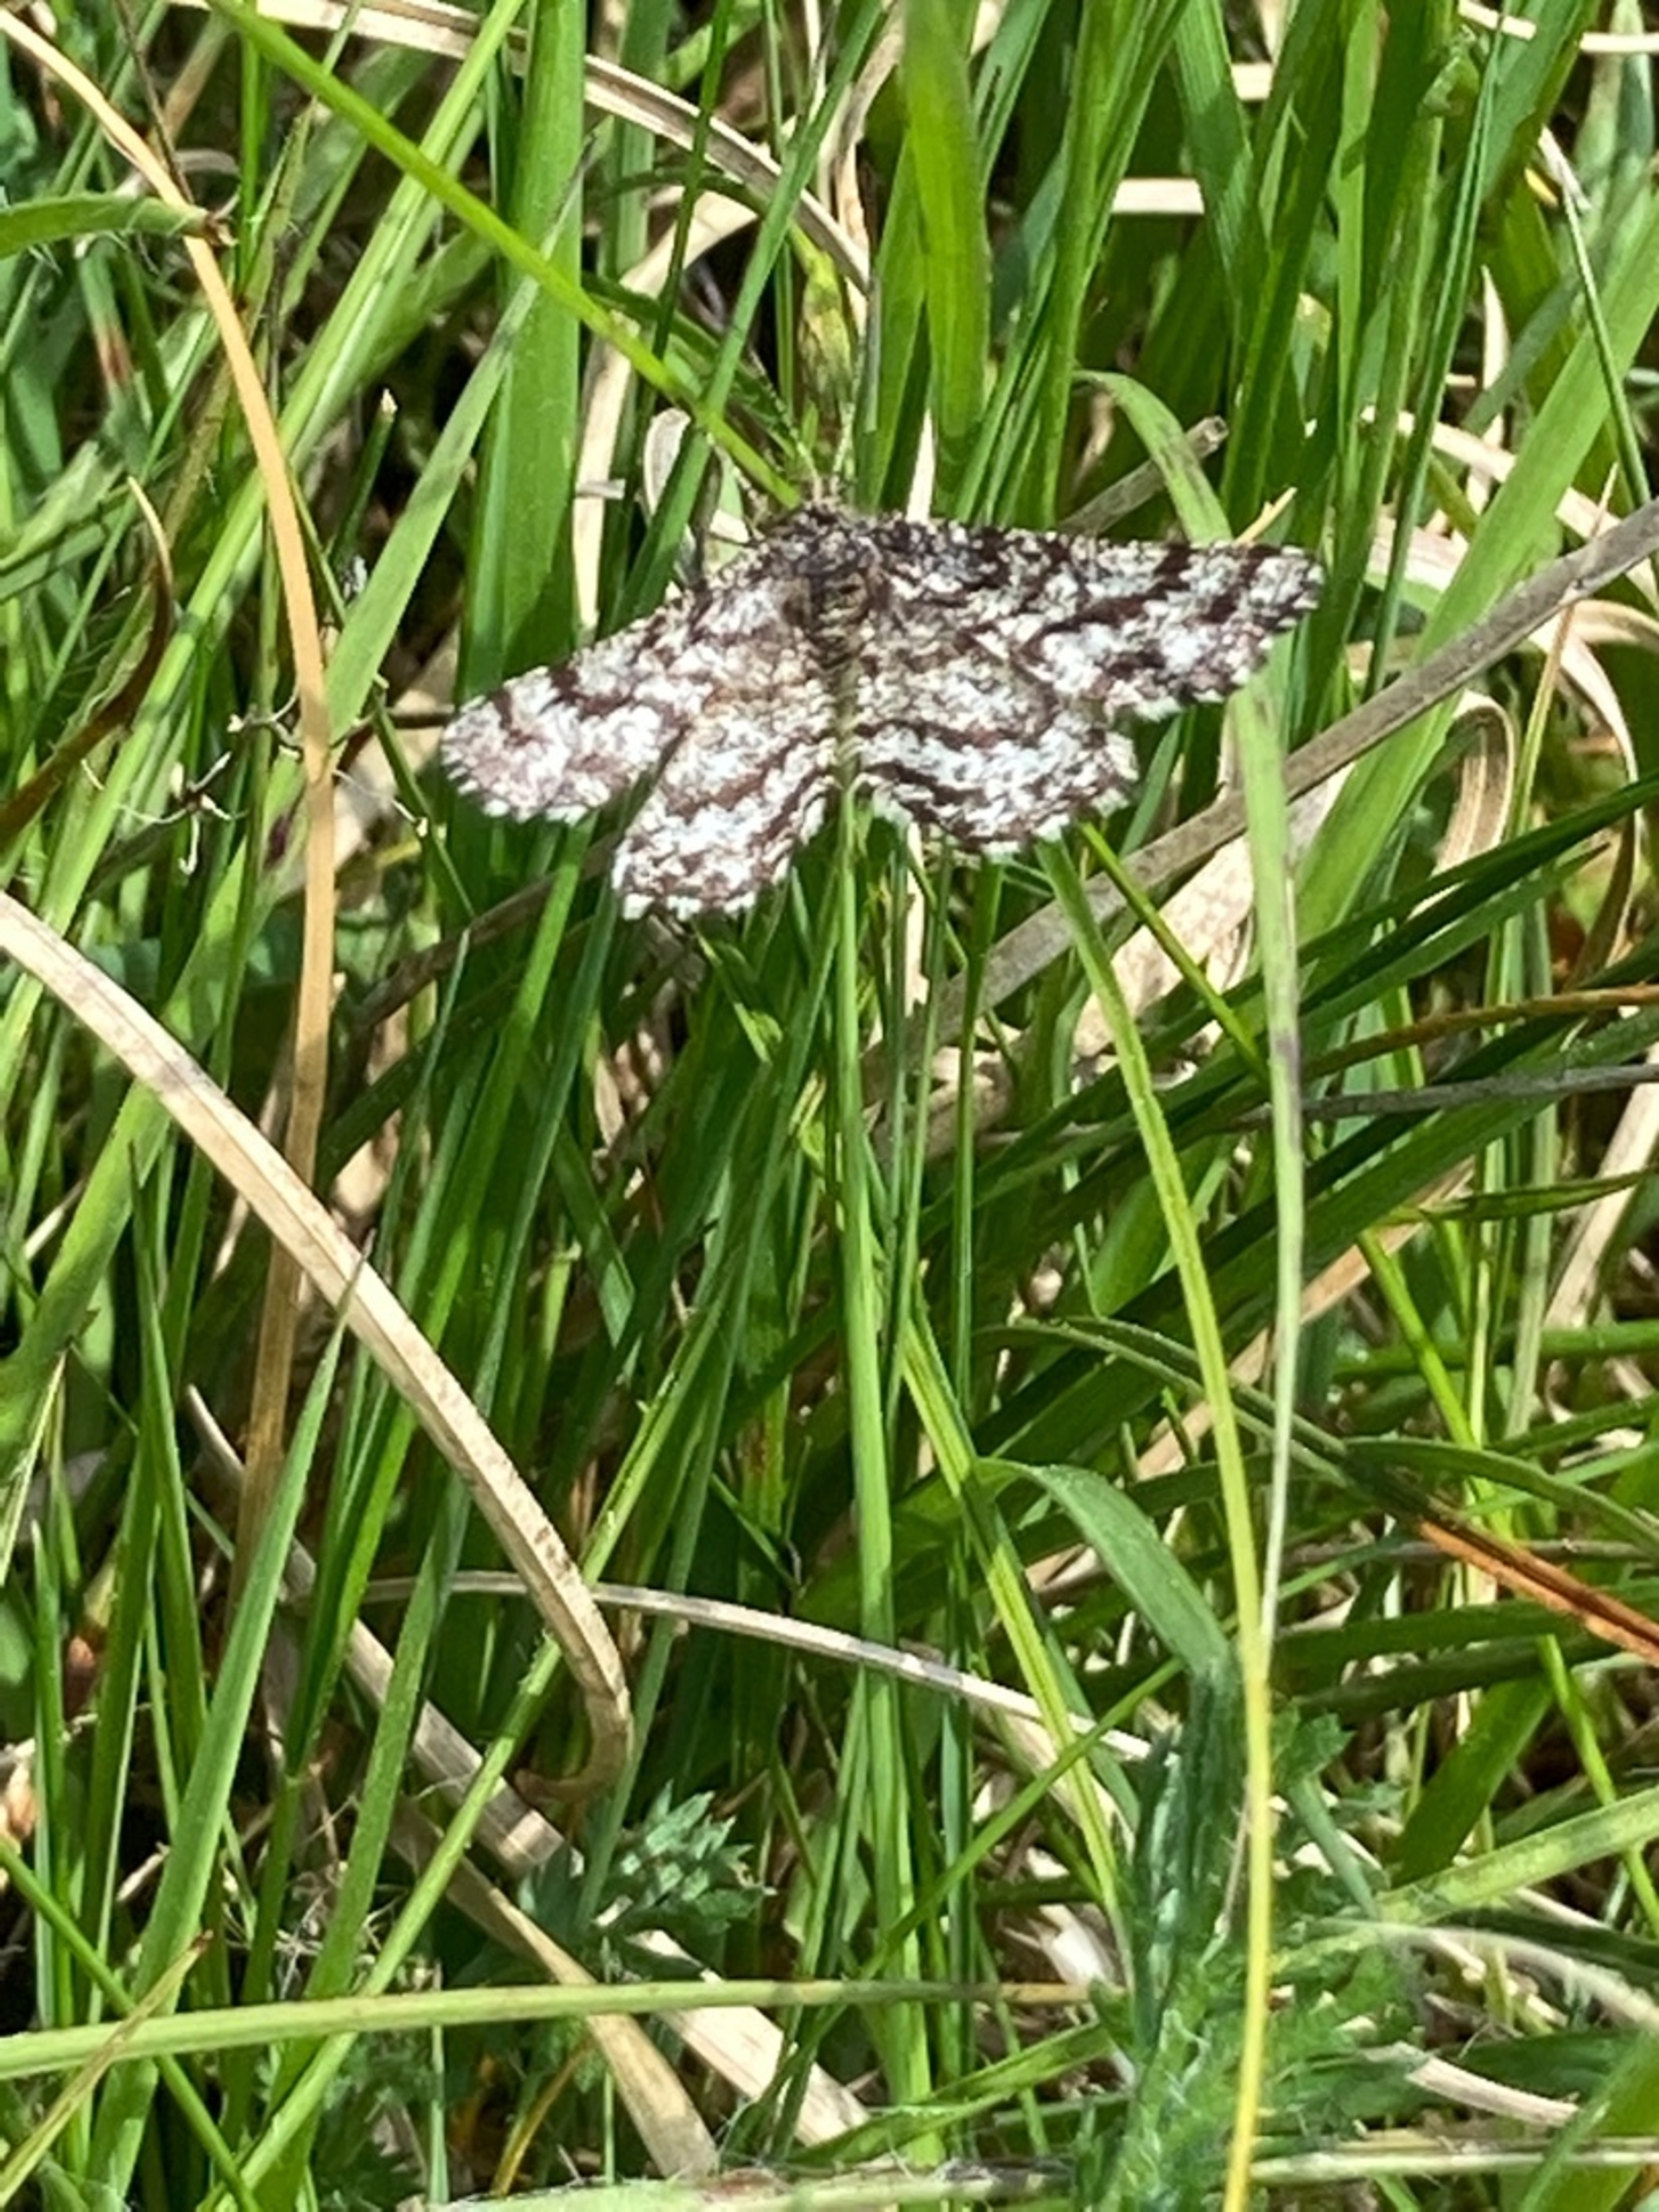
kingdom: Animalia
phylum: Arthropoda
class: Insecta
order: Lepidoptera
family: Geometridae
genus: Ematurga
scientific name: Ematurga atomaria
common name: Lyngmåler
